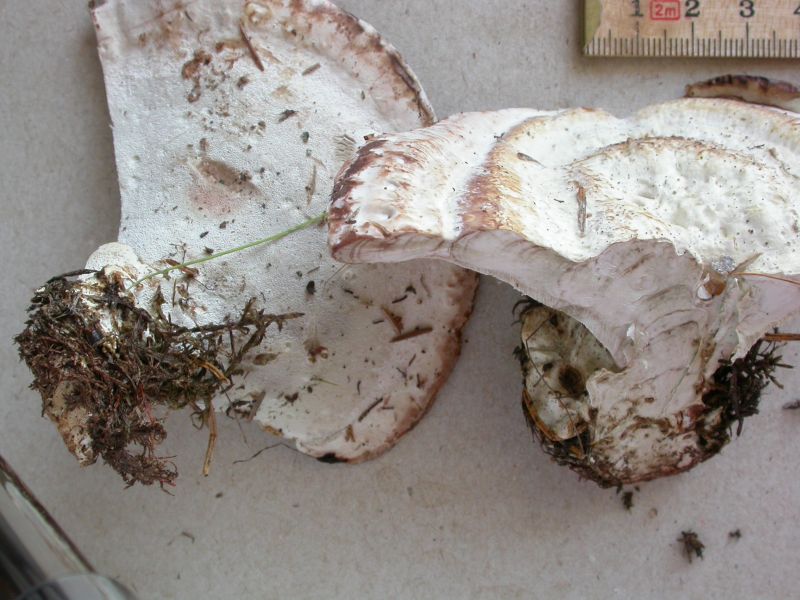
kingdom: Fungi
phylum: Basidiomycota
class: Agaricomycetes
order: Polyporales
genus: Calcipostia
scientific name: Calcipostia guttulata
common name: dråbe-kødporesvamp
